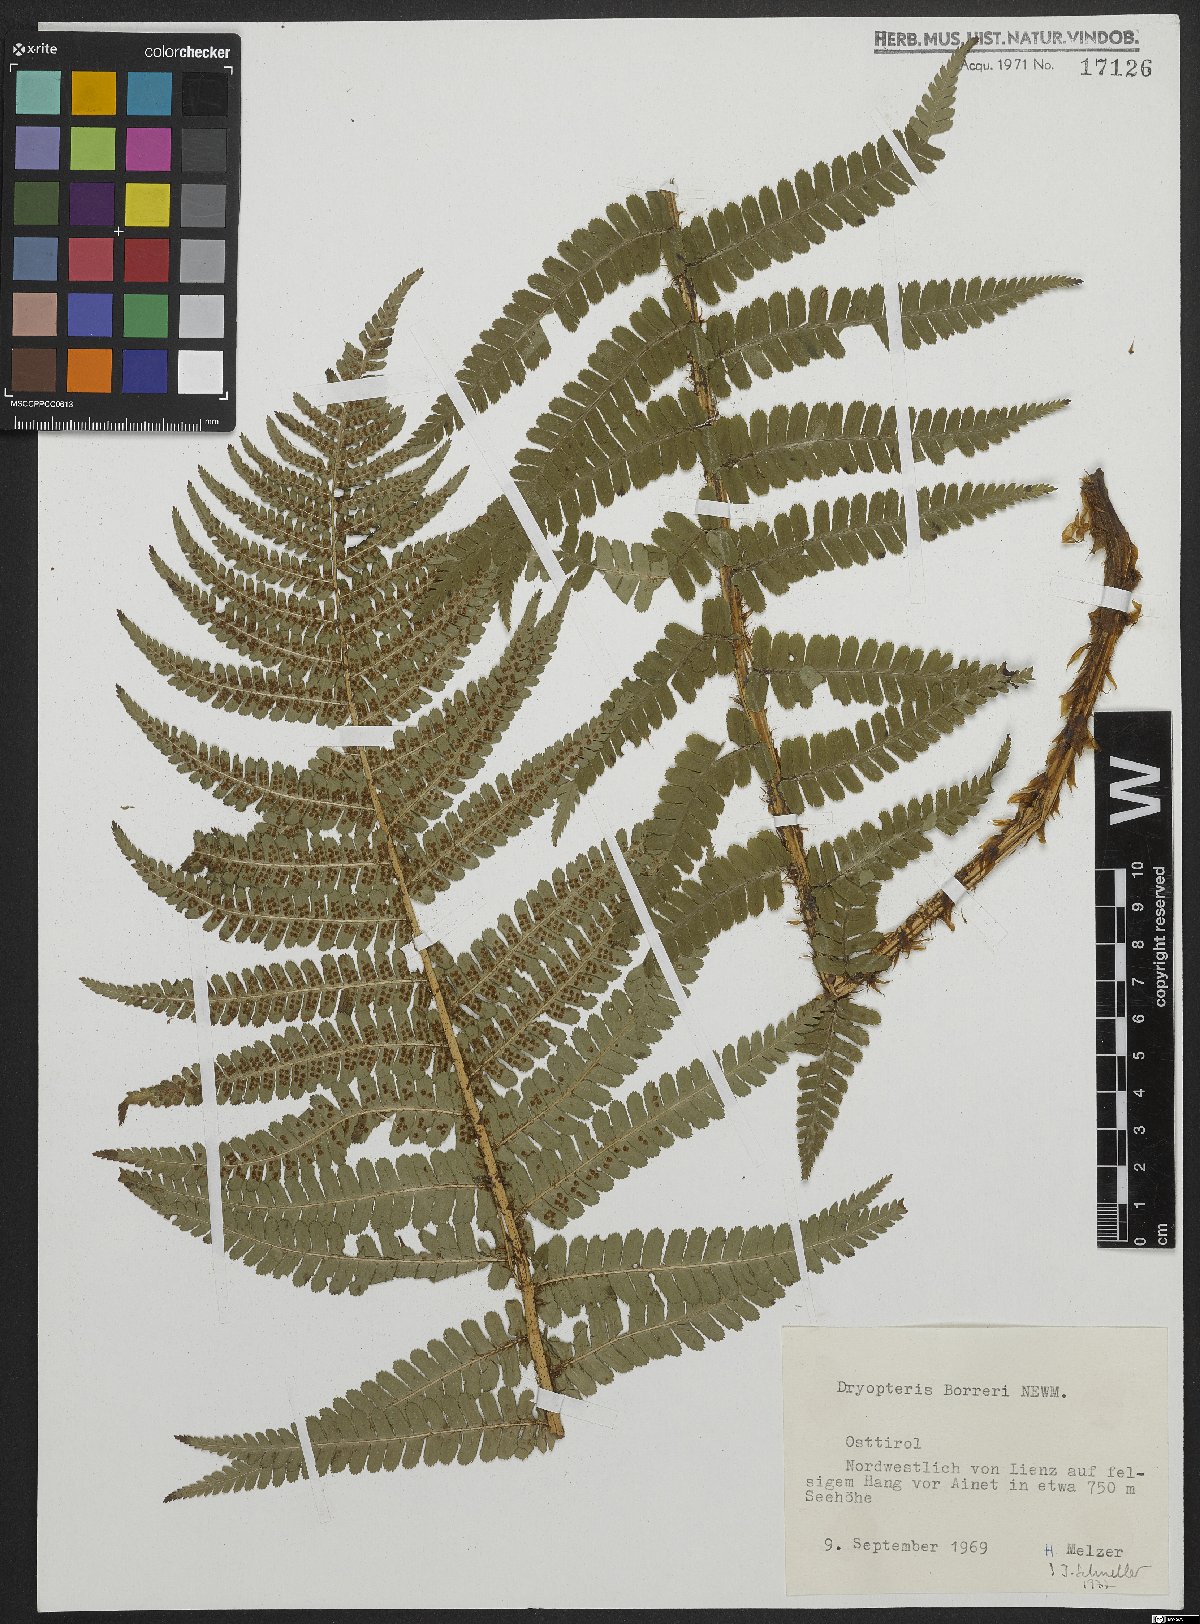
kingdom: Plantae
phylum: Tracheophyta
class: Polypodiopsida
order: Polypodiales
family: Dryopteridaceae
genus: Dryopteris
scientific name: Dryopteris cambrensis
